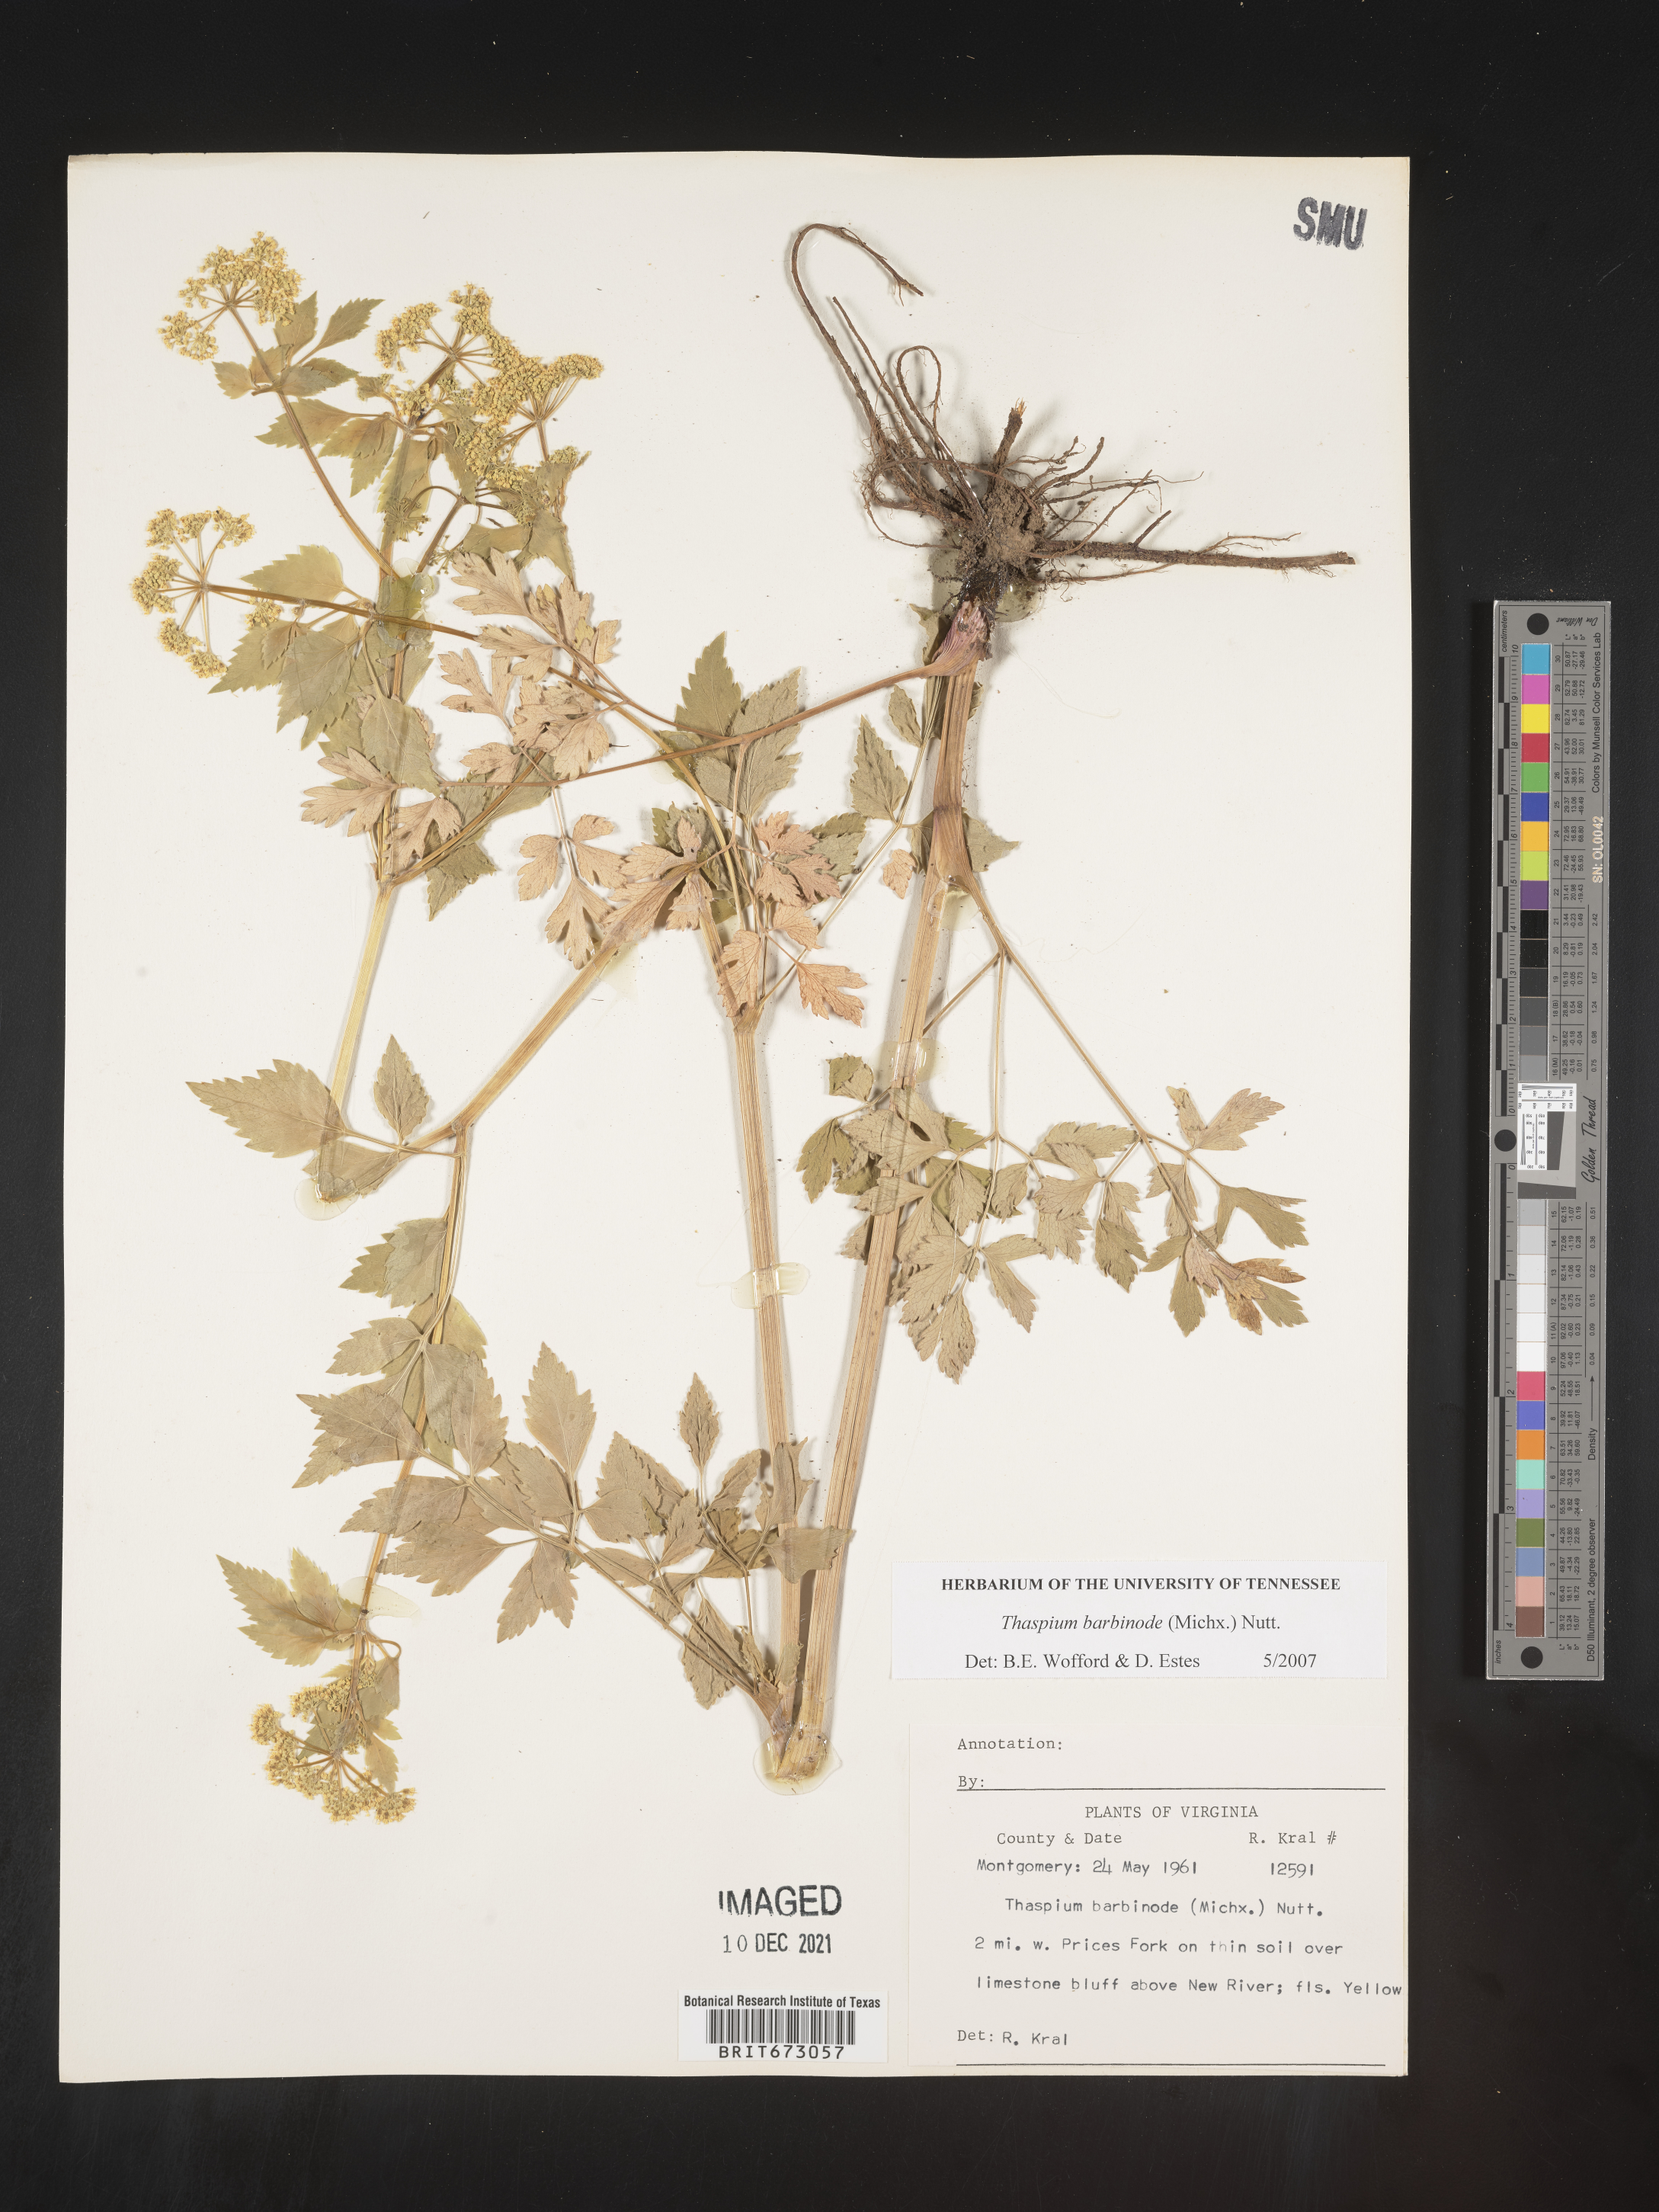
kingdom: Plantae
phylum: Tracheophyta
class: Magnoliopsida
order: Apiales
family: Apiaceae
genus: Thaspium
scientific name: Thaspium barbinode
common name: Bearded meadow-parsnip
